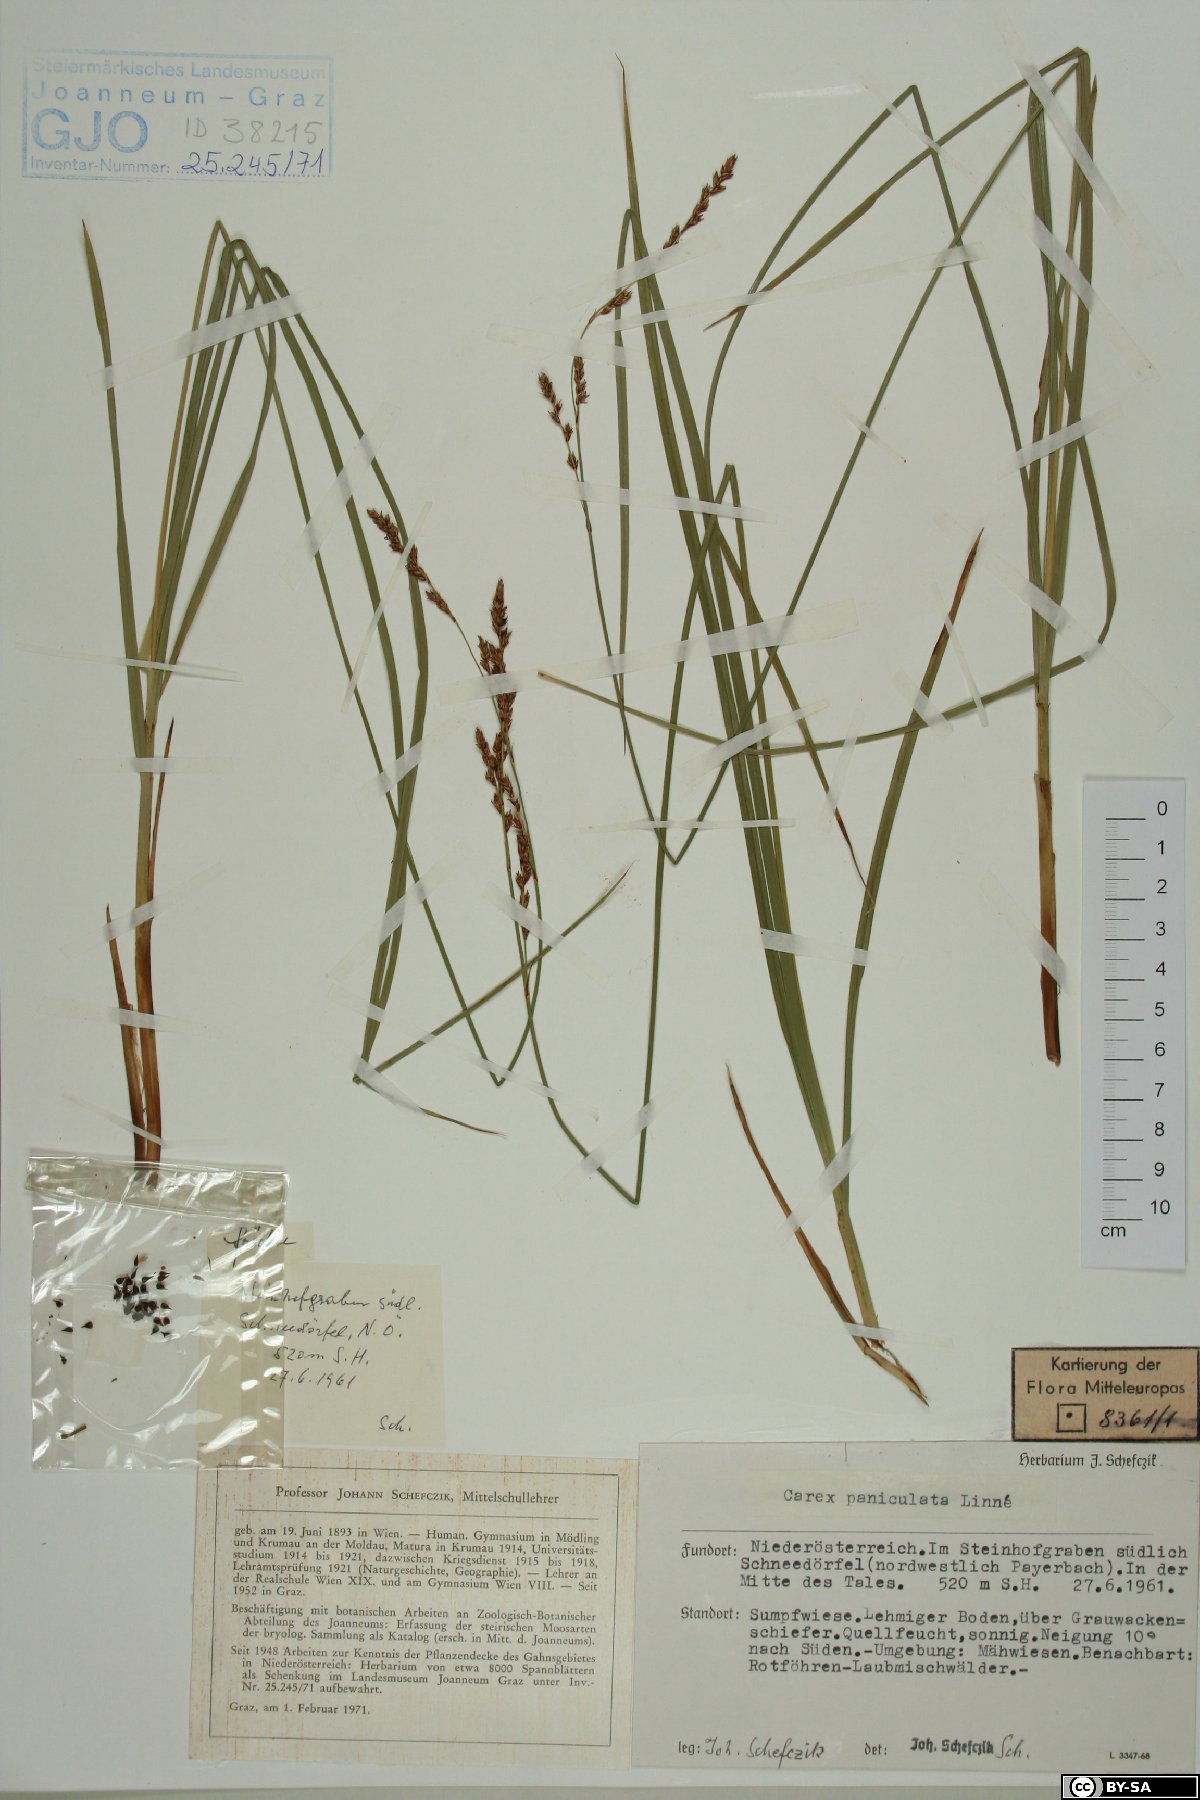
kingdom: Plantae
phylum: Tracheophyta
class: Liliopsida
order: Poales
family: Cyperaceae
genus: Carex
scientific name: Carex paniculata
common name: Greater tussock-sedge
